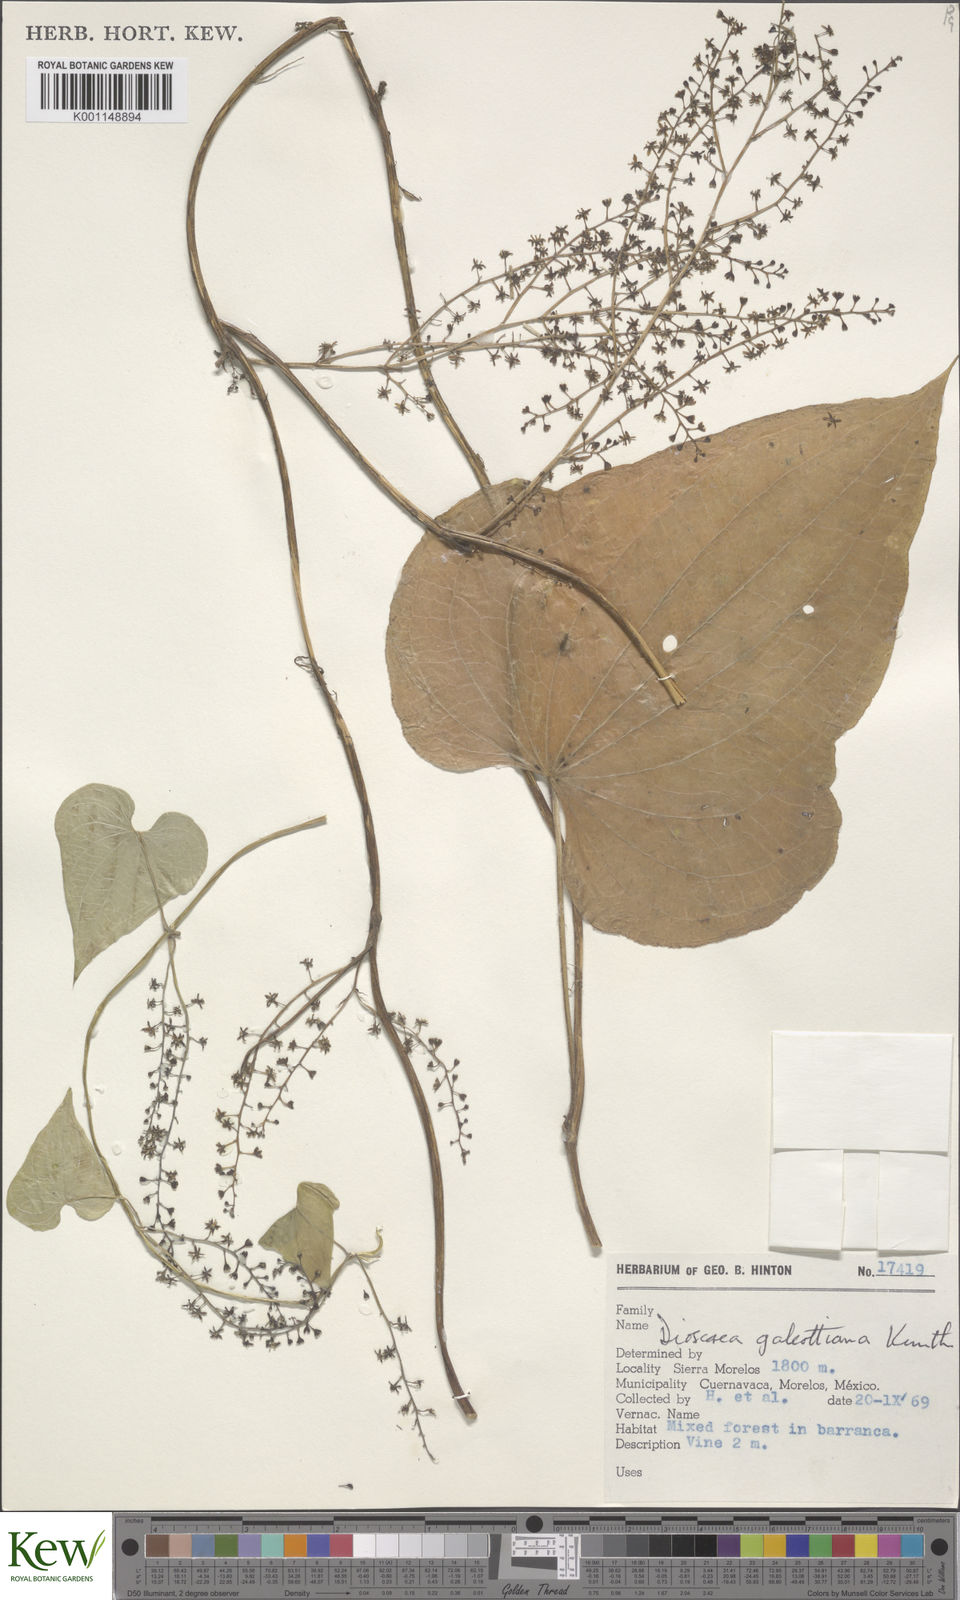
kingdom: Plantae
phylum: Tracheophyta
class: Liliopsida
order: Dioscoreales
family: Dioscoreaceae
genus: Dioscorea
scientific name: Dioscorea galeottiana
